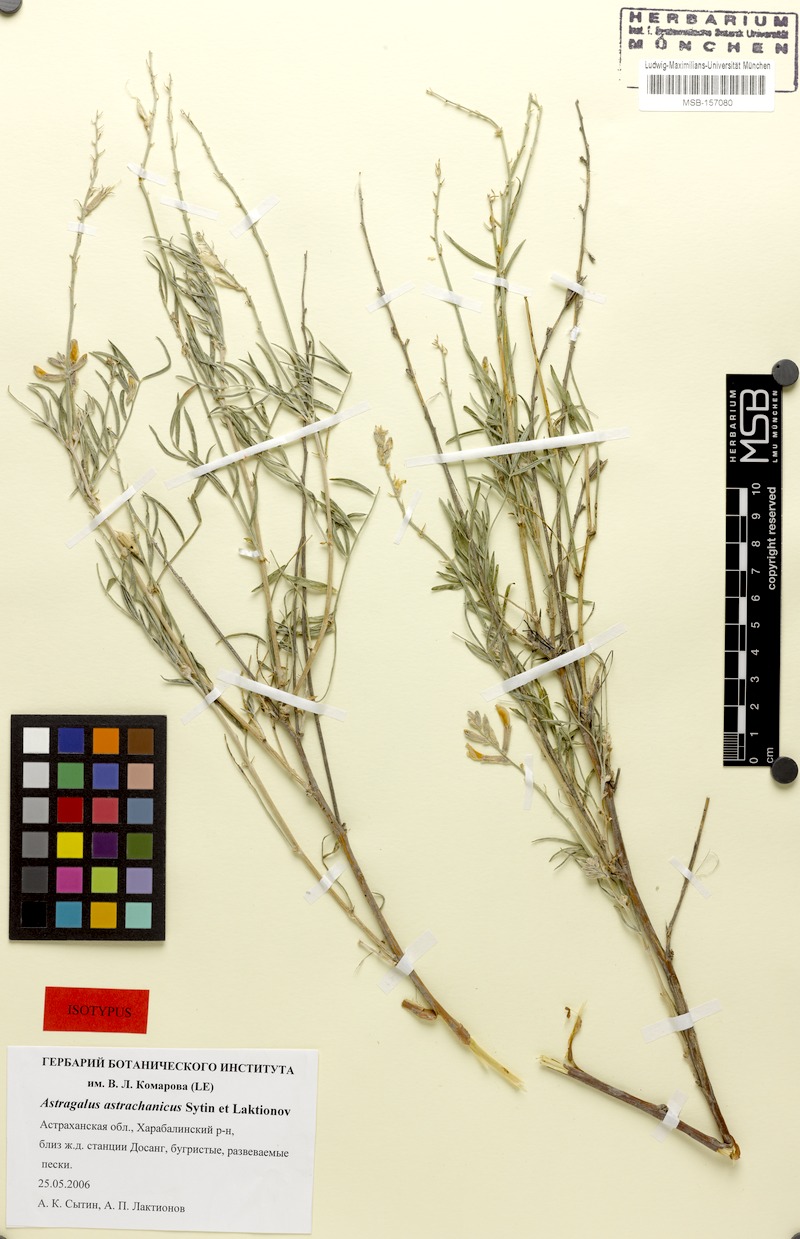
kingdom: Plantae
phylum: Tracheophyta
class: Magnoliopsida
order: Fabales
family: Fabaceae
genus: Astragalus
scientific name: Astragalus astrachanicus
